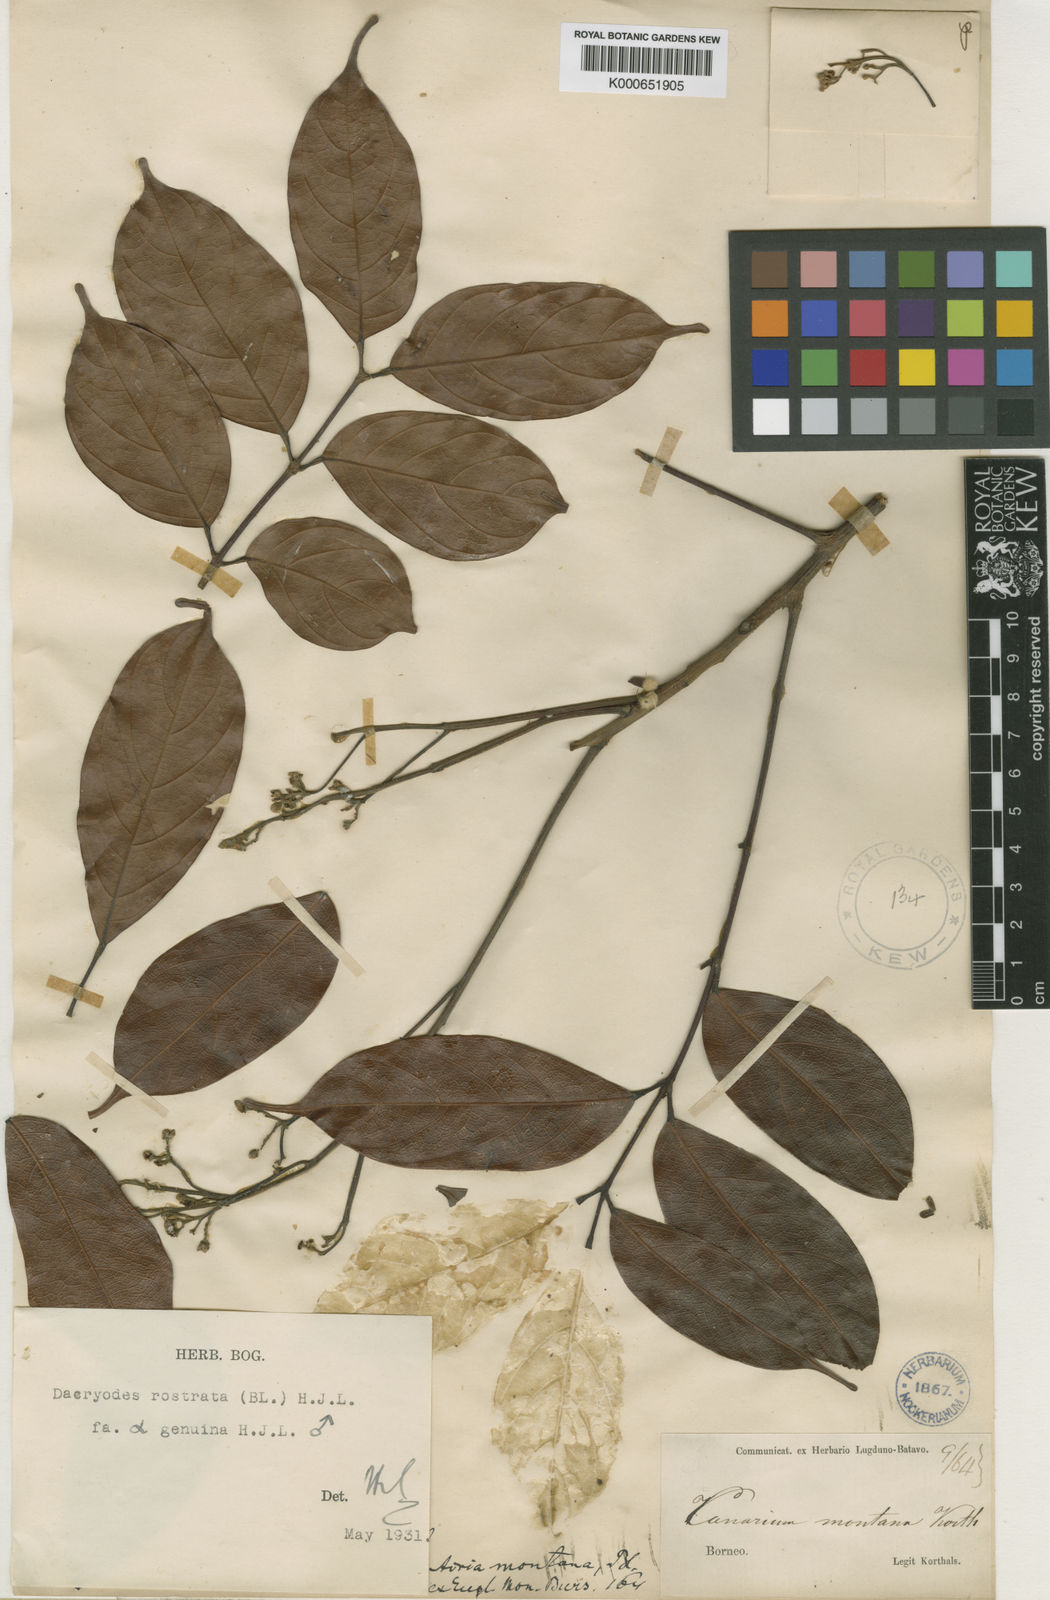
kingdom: Plantae
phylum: Tracheophyta
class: Magnoliopsida
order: Sapindales
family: Burseraceae
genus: Dacryodes
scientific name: Dacryodes rostrata
